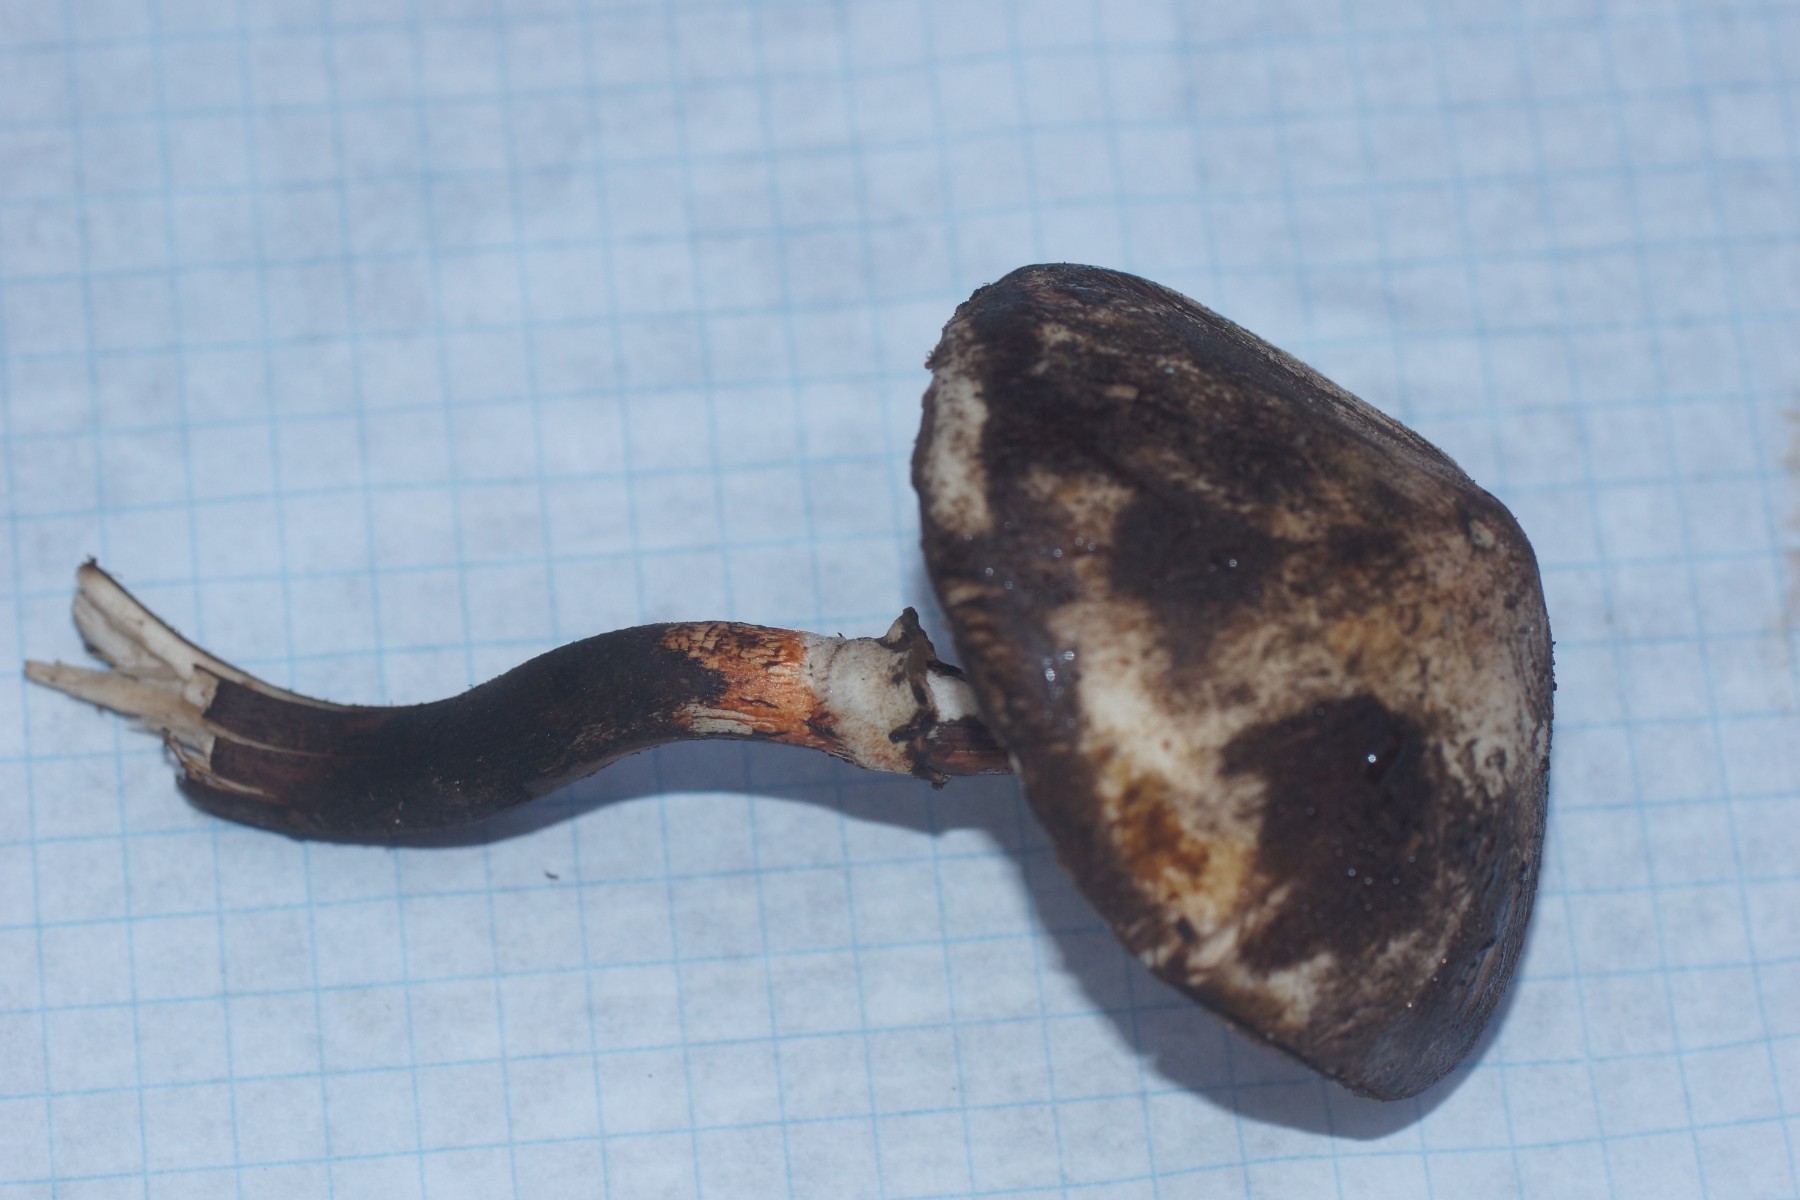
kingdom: Fungi
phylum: Basidiomycota
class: Agaricomycetes
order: Agaricales
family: Agaricaceae
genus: Leucoagaricus
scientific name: Leucoagaricus badhamii
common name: rødmende silkehat
